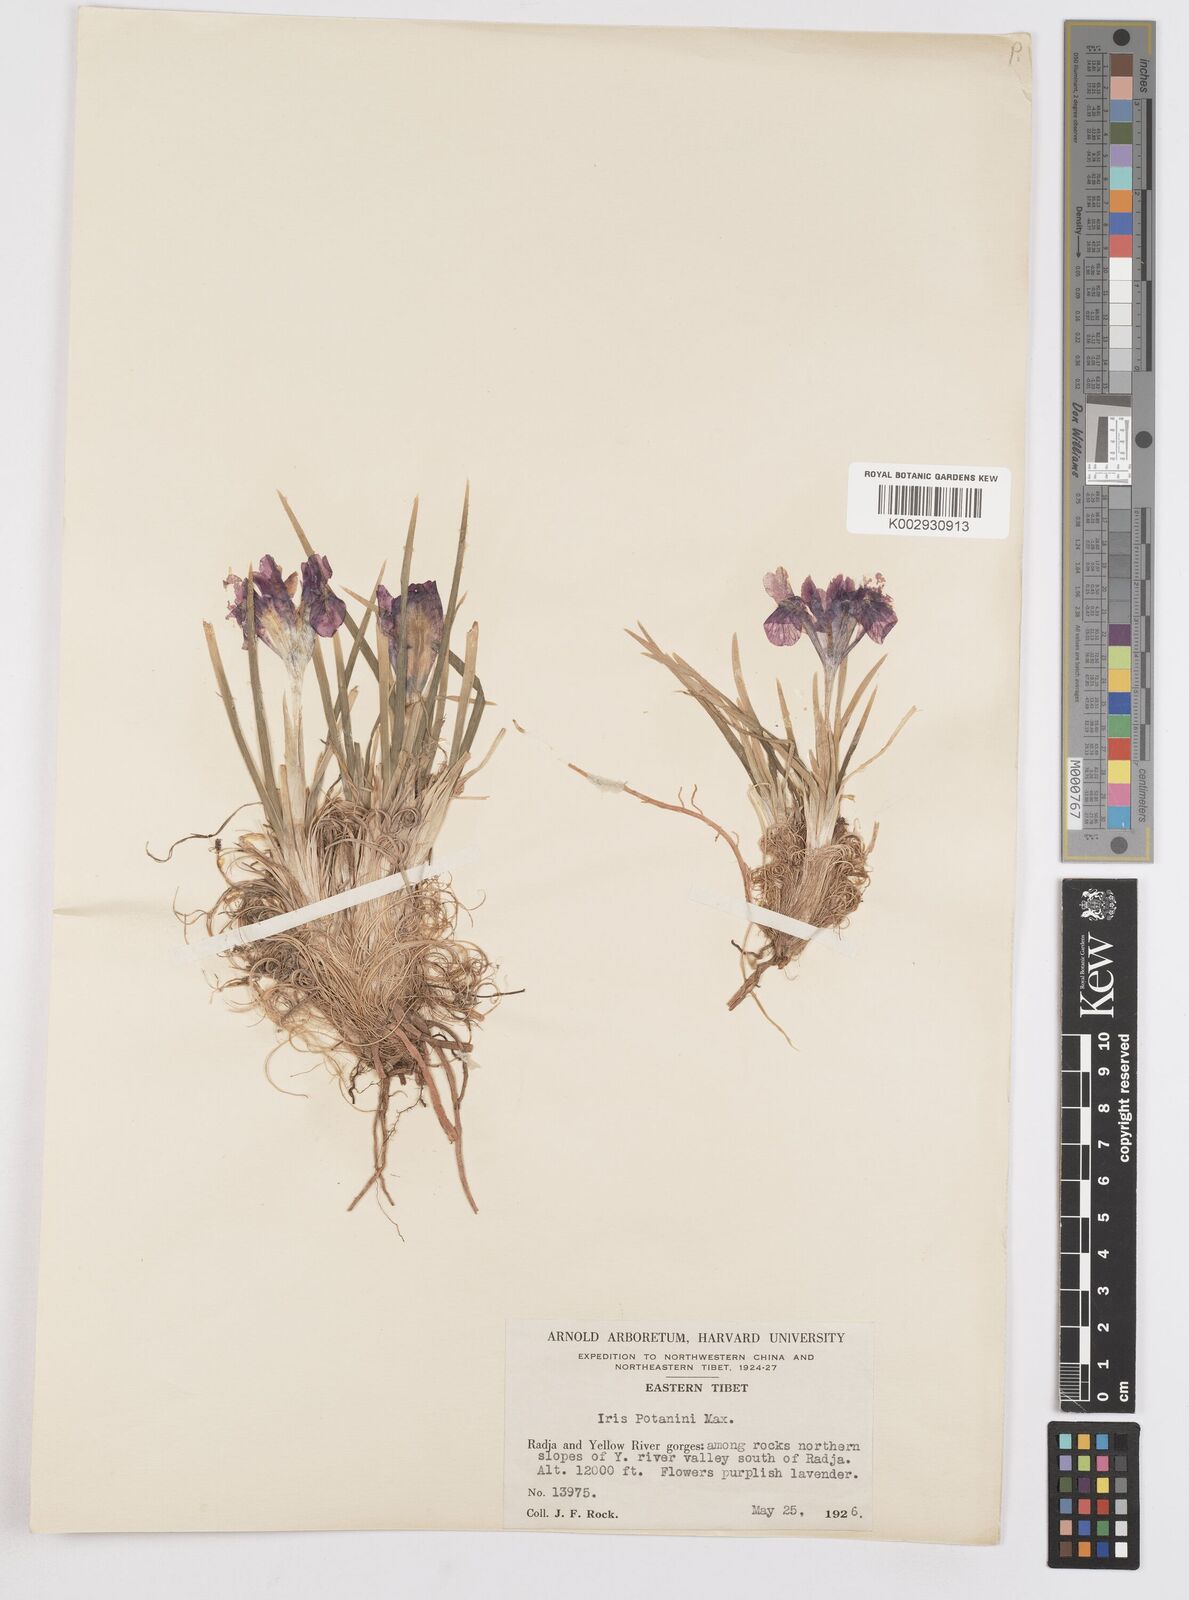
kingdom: Plantae
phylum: Tracheophyta
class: Liliopsida
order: Asparagales
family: Iridaceae
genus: Iris
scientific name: Iris potaninii
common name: Curl-sheath iris
